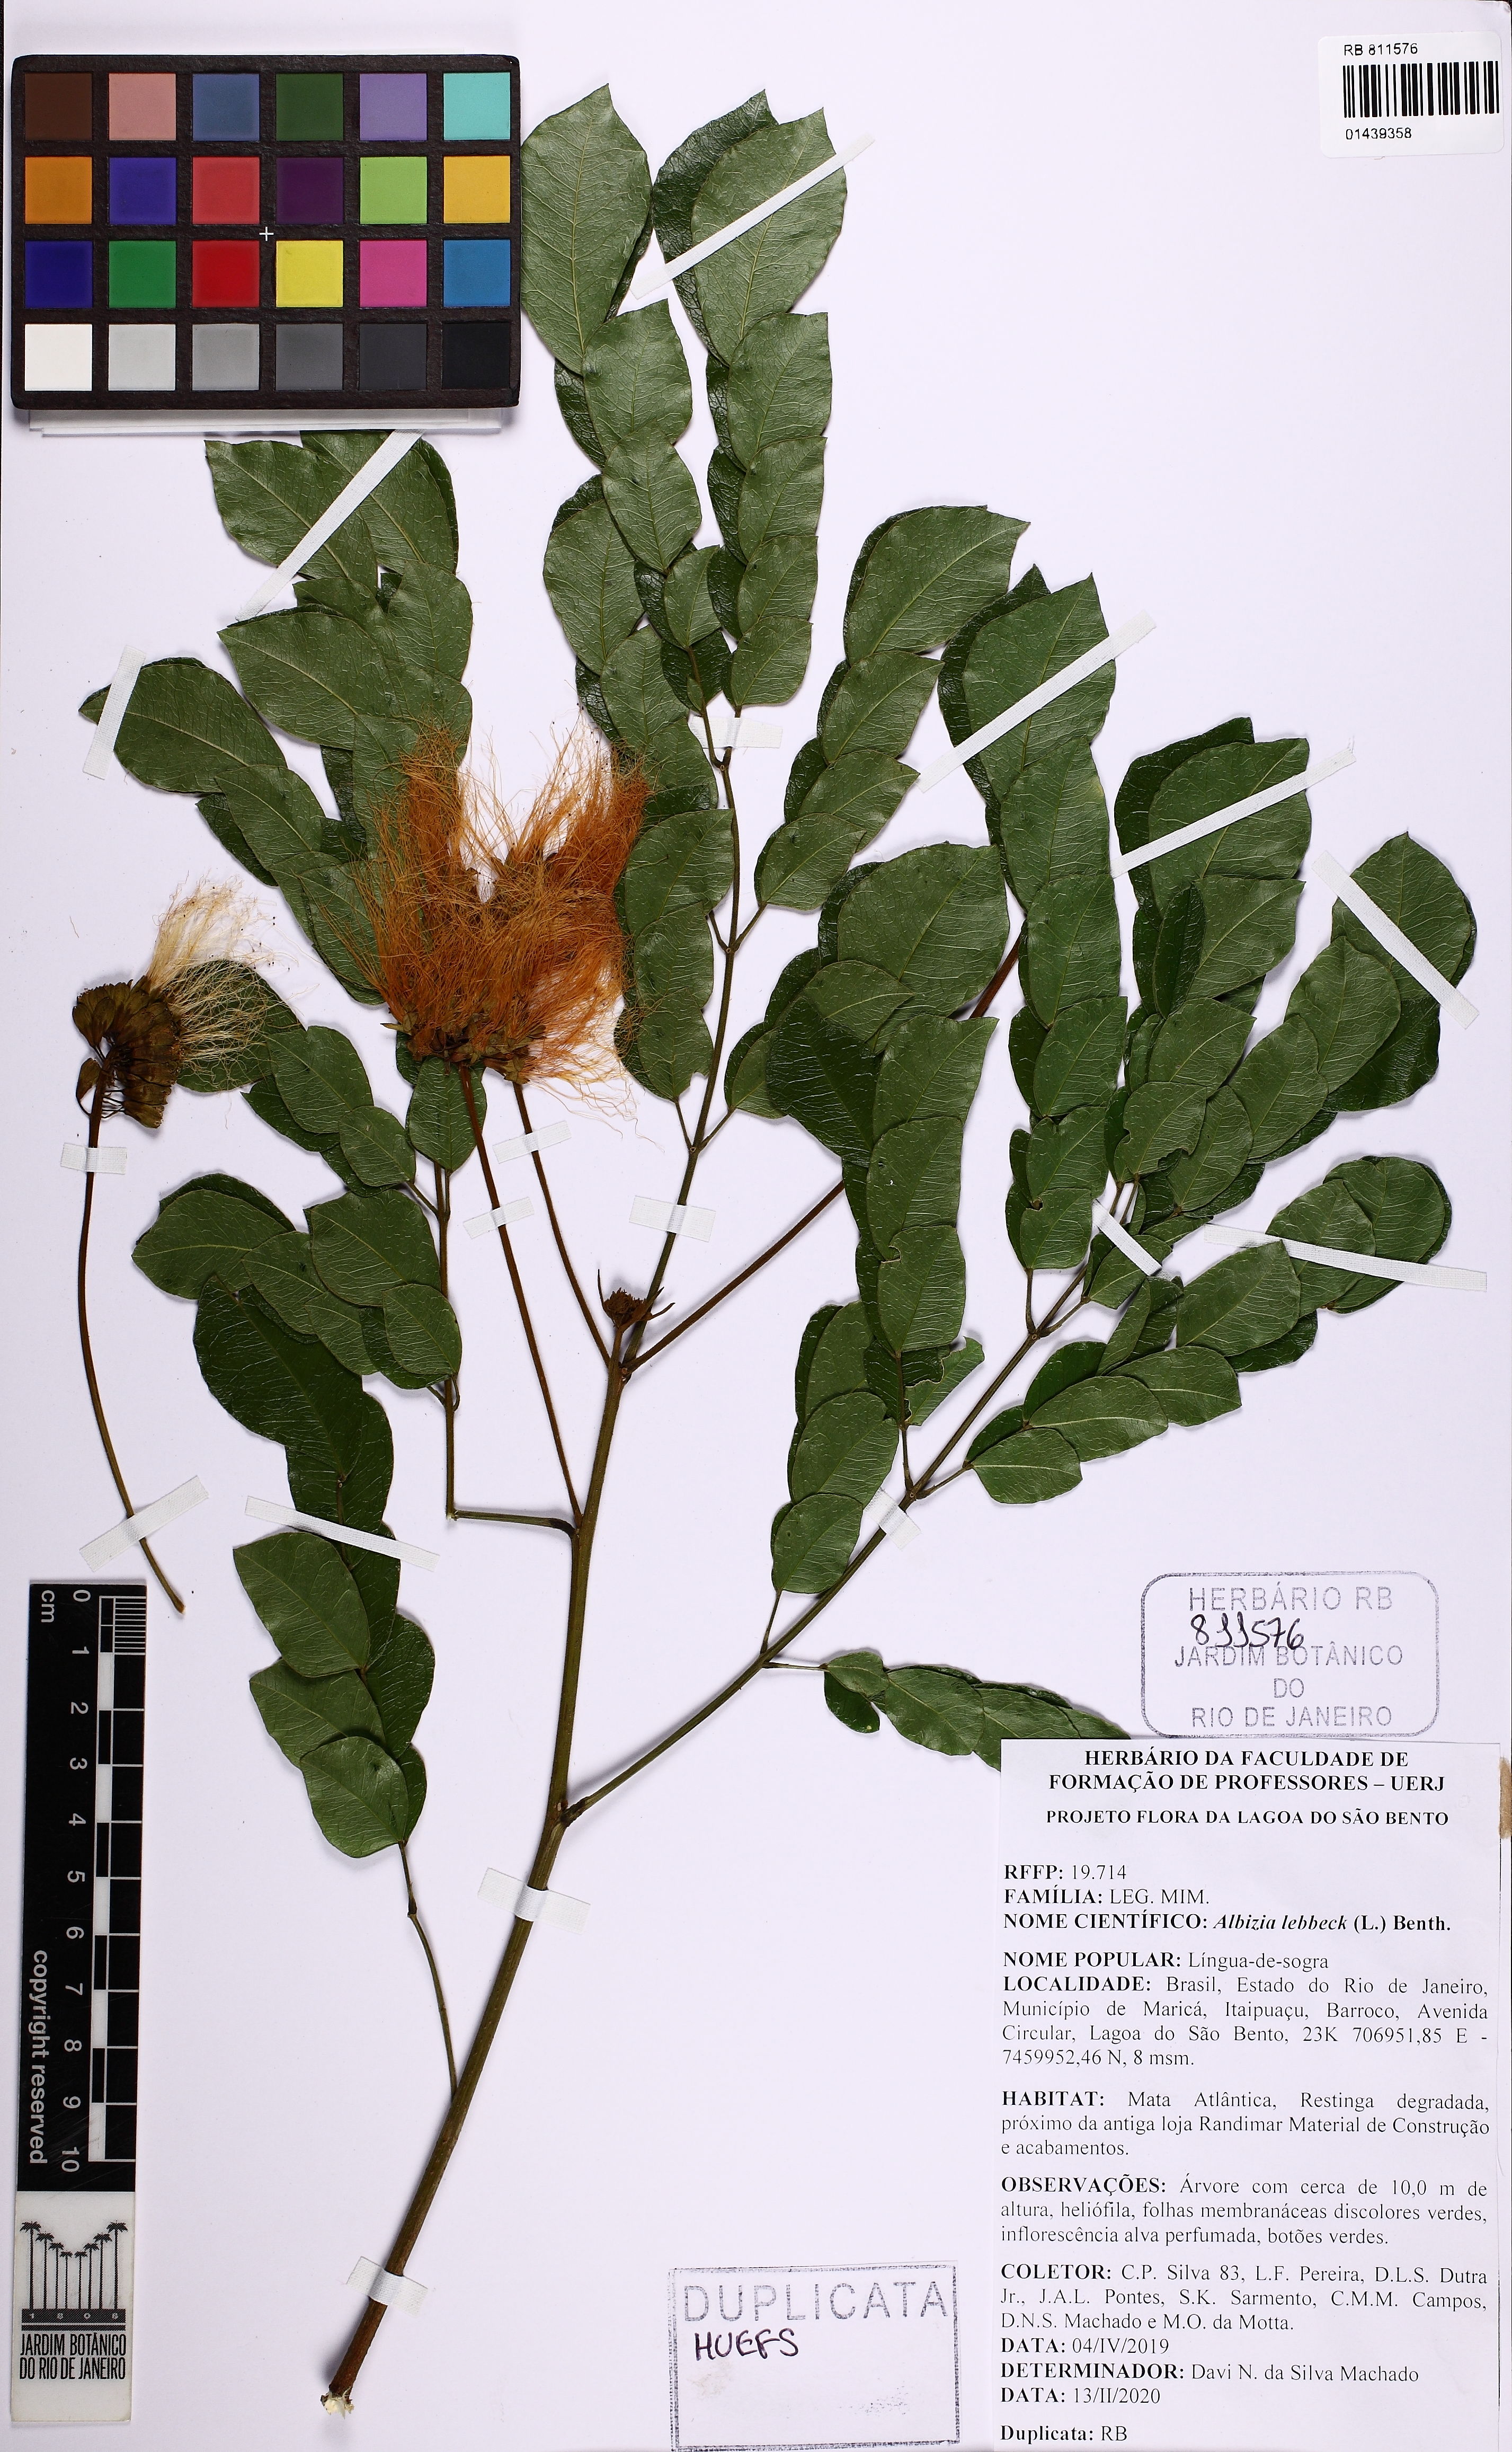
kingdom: Plantae
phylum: Tracheophyta
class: Magnoliopsida
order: Fabales
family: Fabaceae
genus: Albizia
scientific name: Albizia lebbeck
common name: Woman's tongue
